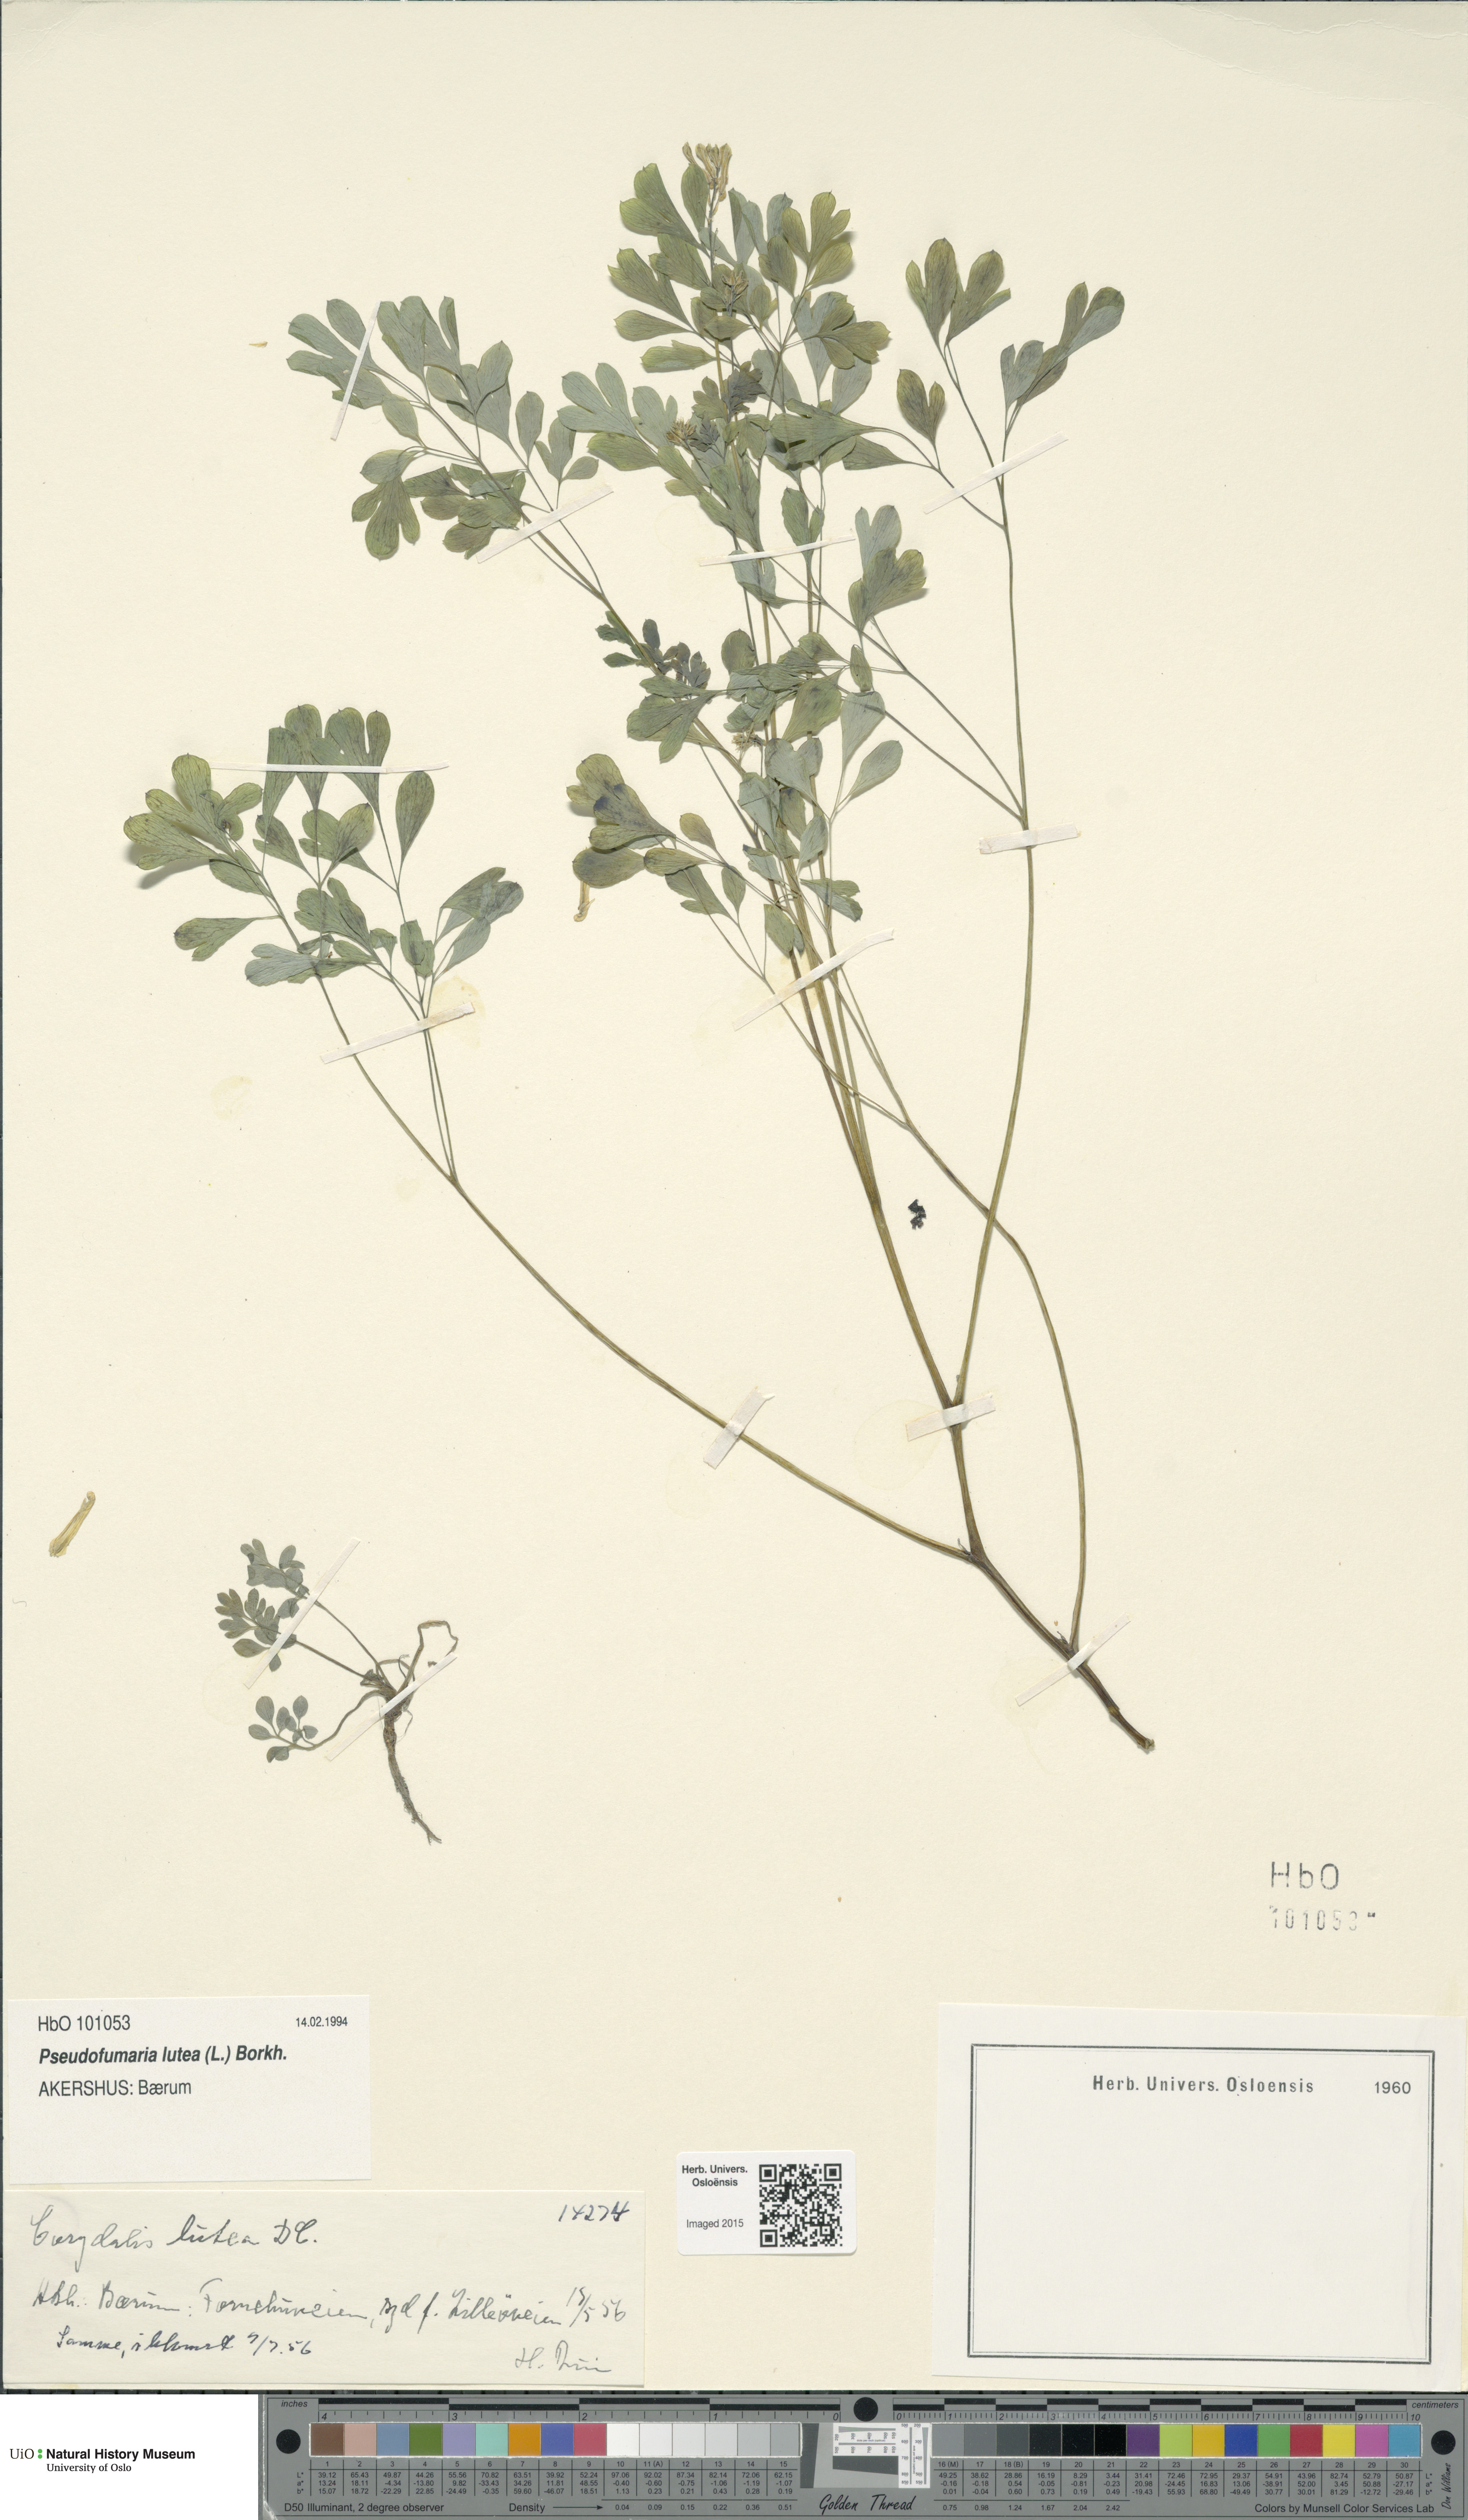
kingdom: Plantae
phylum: Tracheophyta
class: Magnoliopsida
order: Ranunculales
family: Papaveraceae
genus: Pseudofumaria
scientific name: Pseudofumaria lutea
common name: Yellow corydalis
